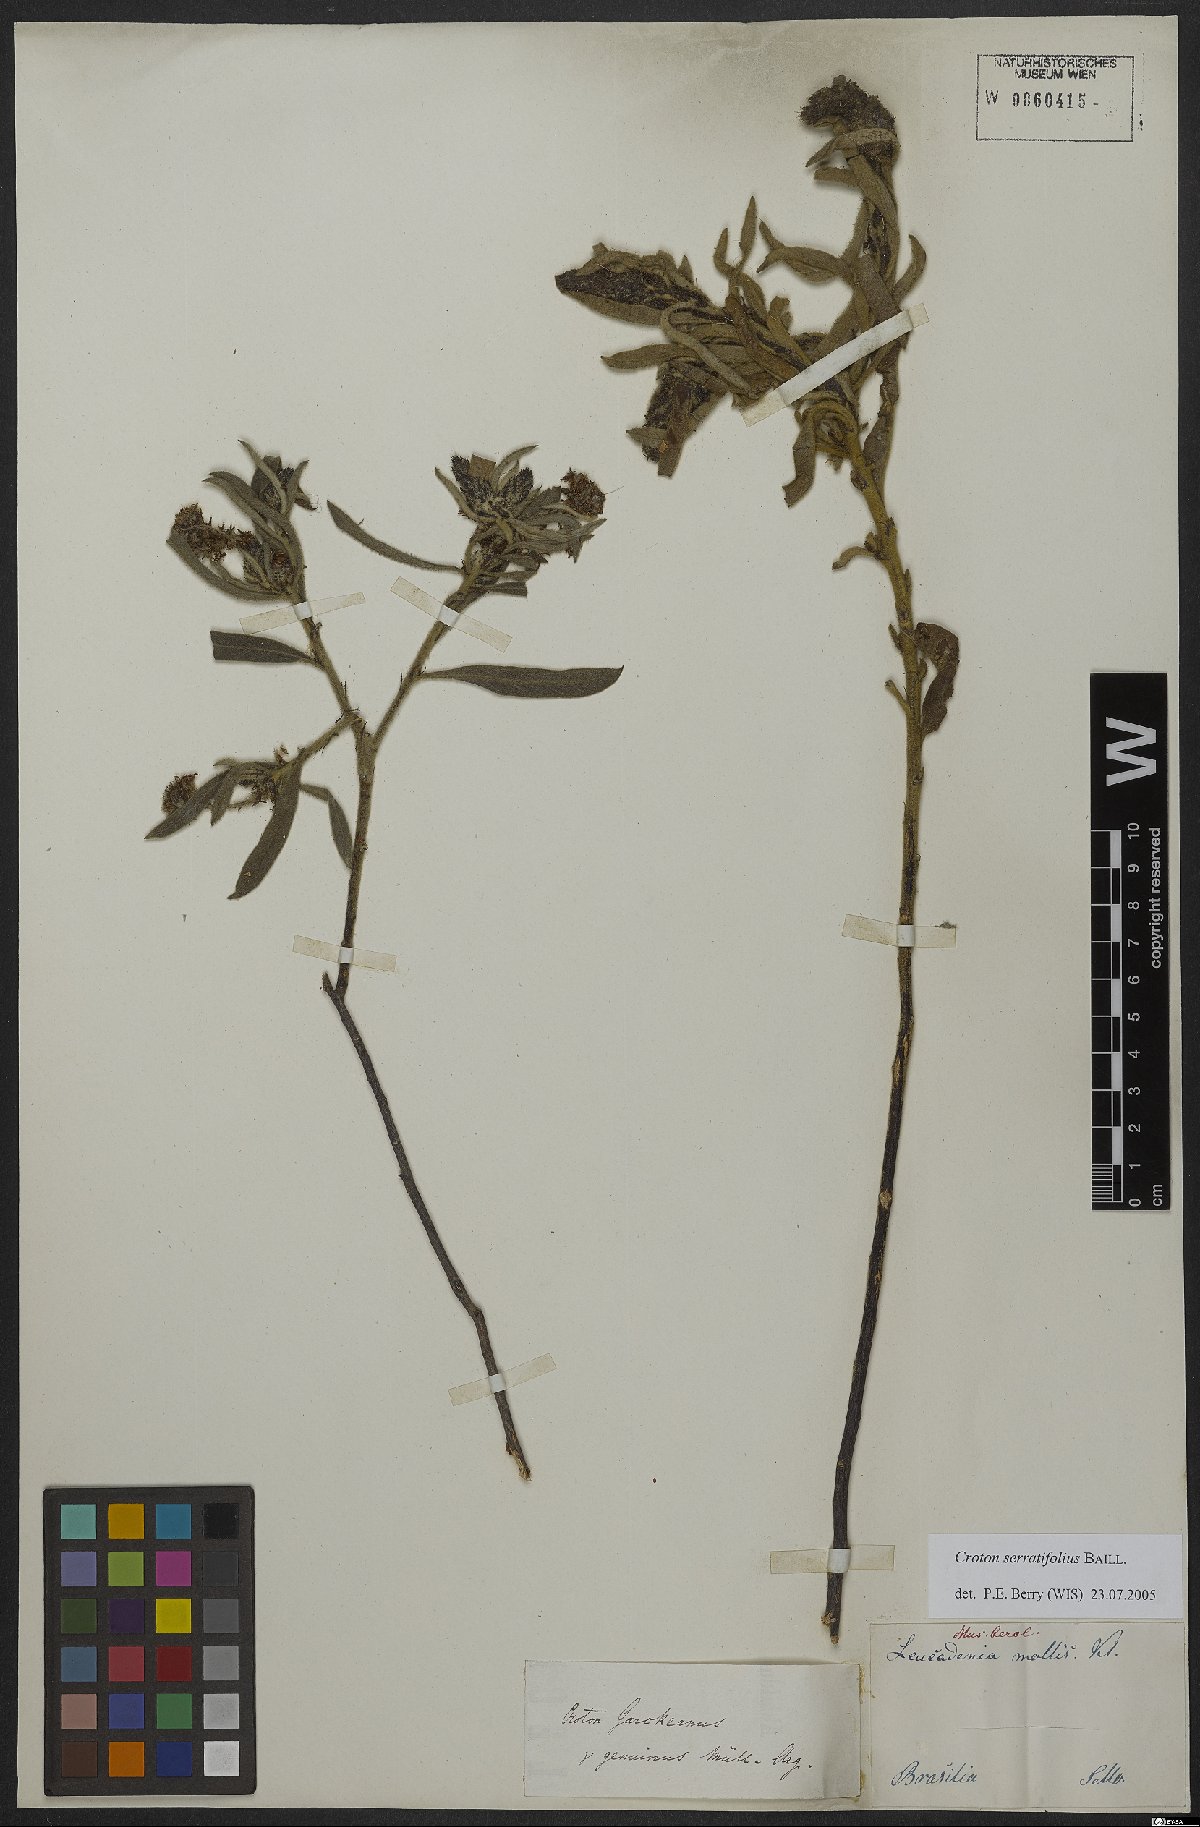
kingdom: Plantae
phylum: Tracheophyta
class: Magnoliopsida
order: Malpighiales
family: Euphorbiaceae
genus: Croton
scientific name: Croton serratifolius
